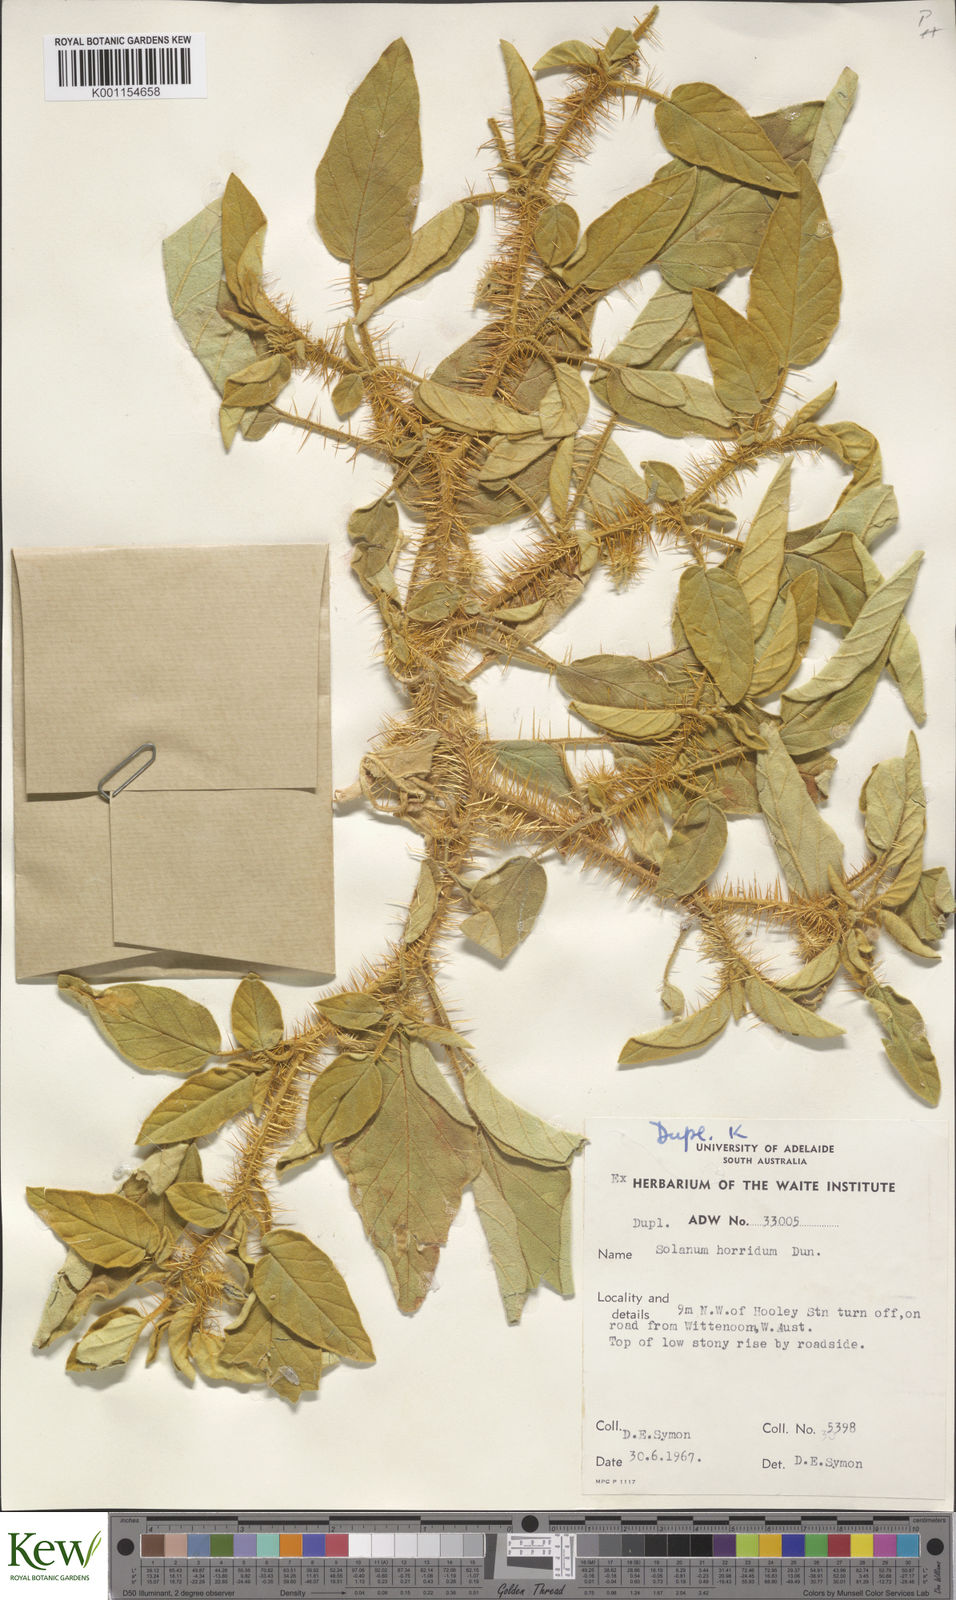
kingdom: Plantae
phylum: Tracheophyta
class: Magnoliopsida
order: Solanales
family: Solanaceae
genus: Solanum
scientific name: Solanum horridum
